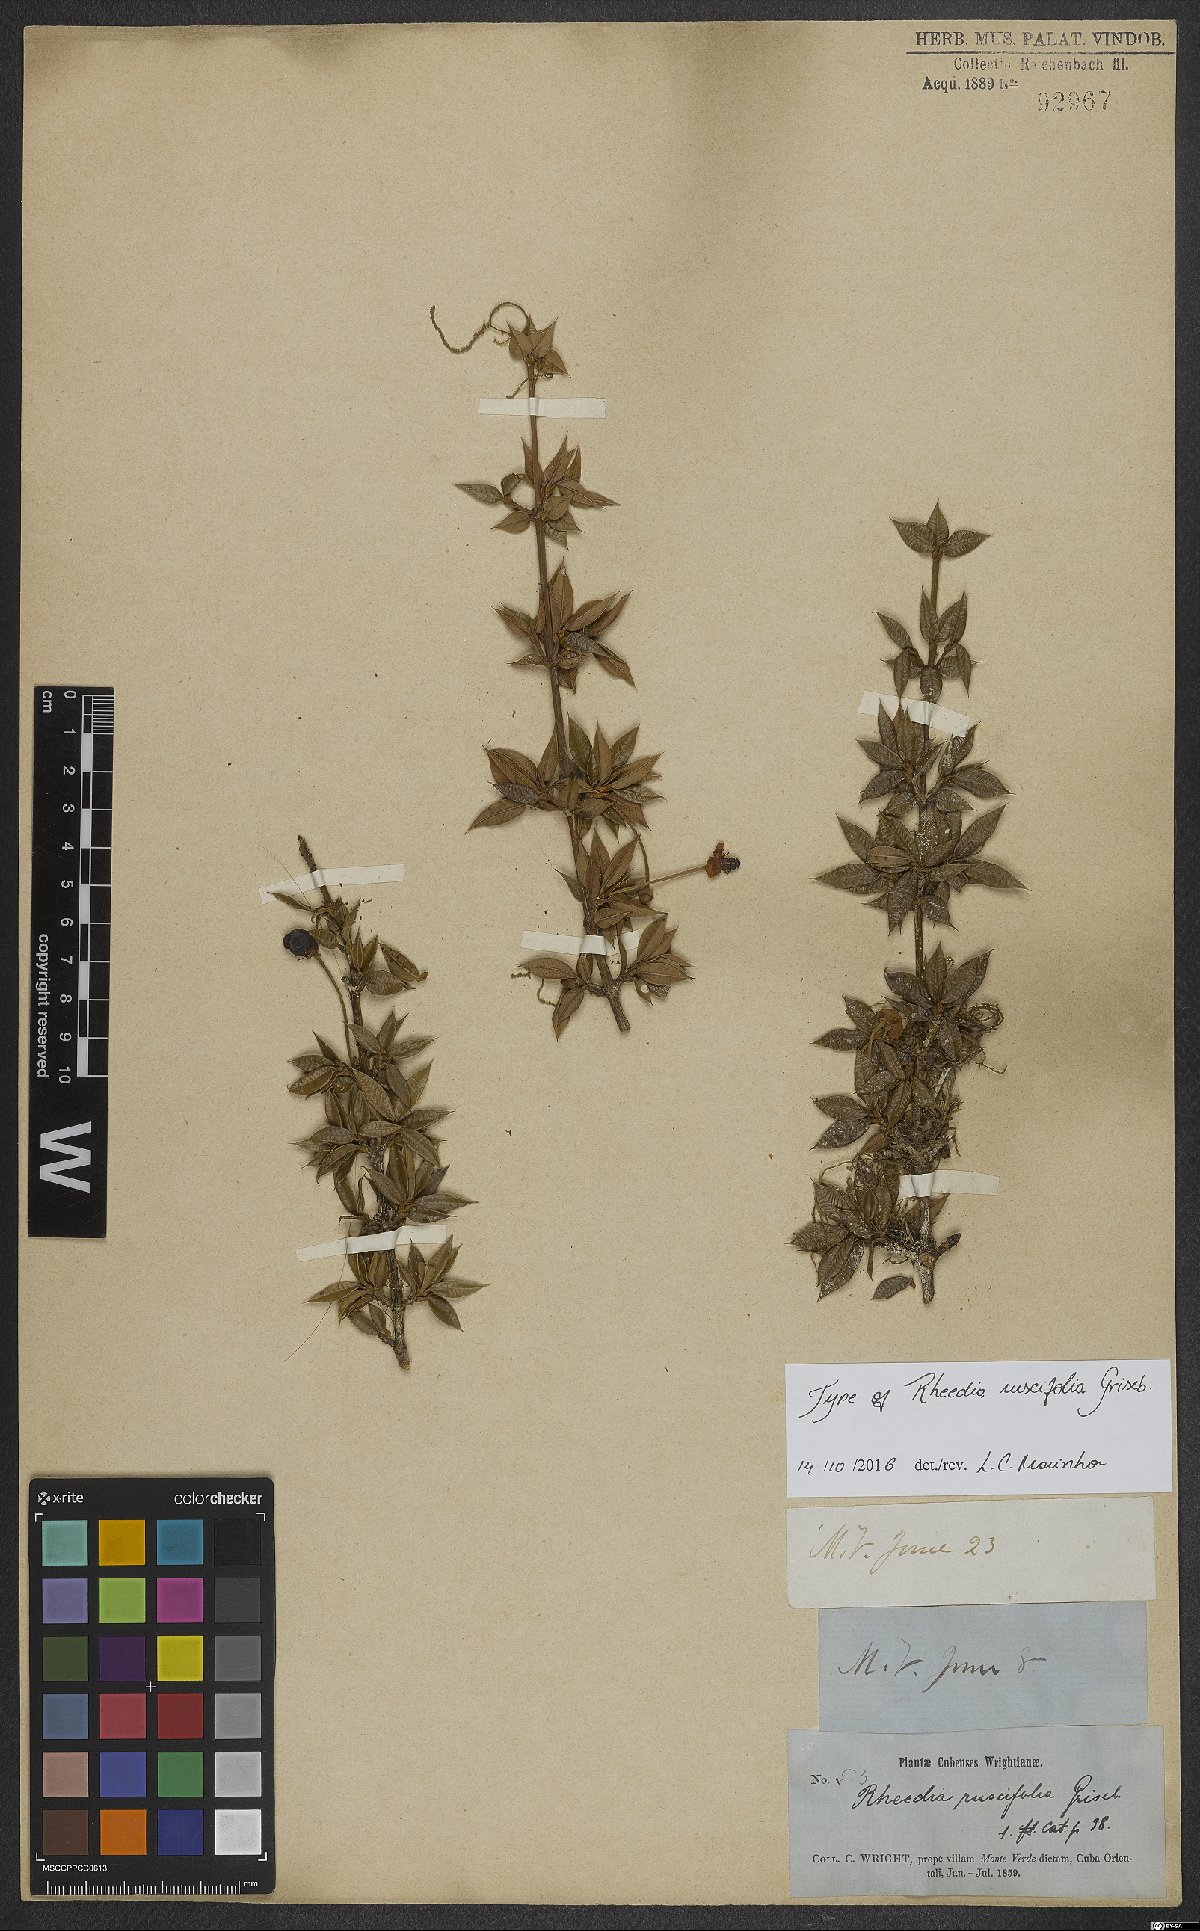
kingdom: Plantae
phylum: Tracheophyta
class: Magnoliopsida
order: Malpighiales
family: Clusiaceae
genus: Garcinia
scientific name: Garcinia ruscifolia
